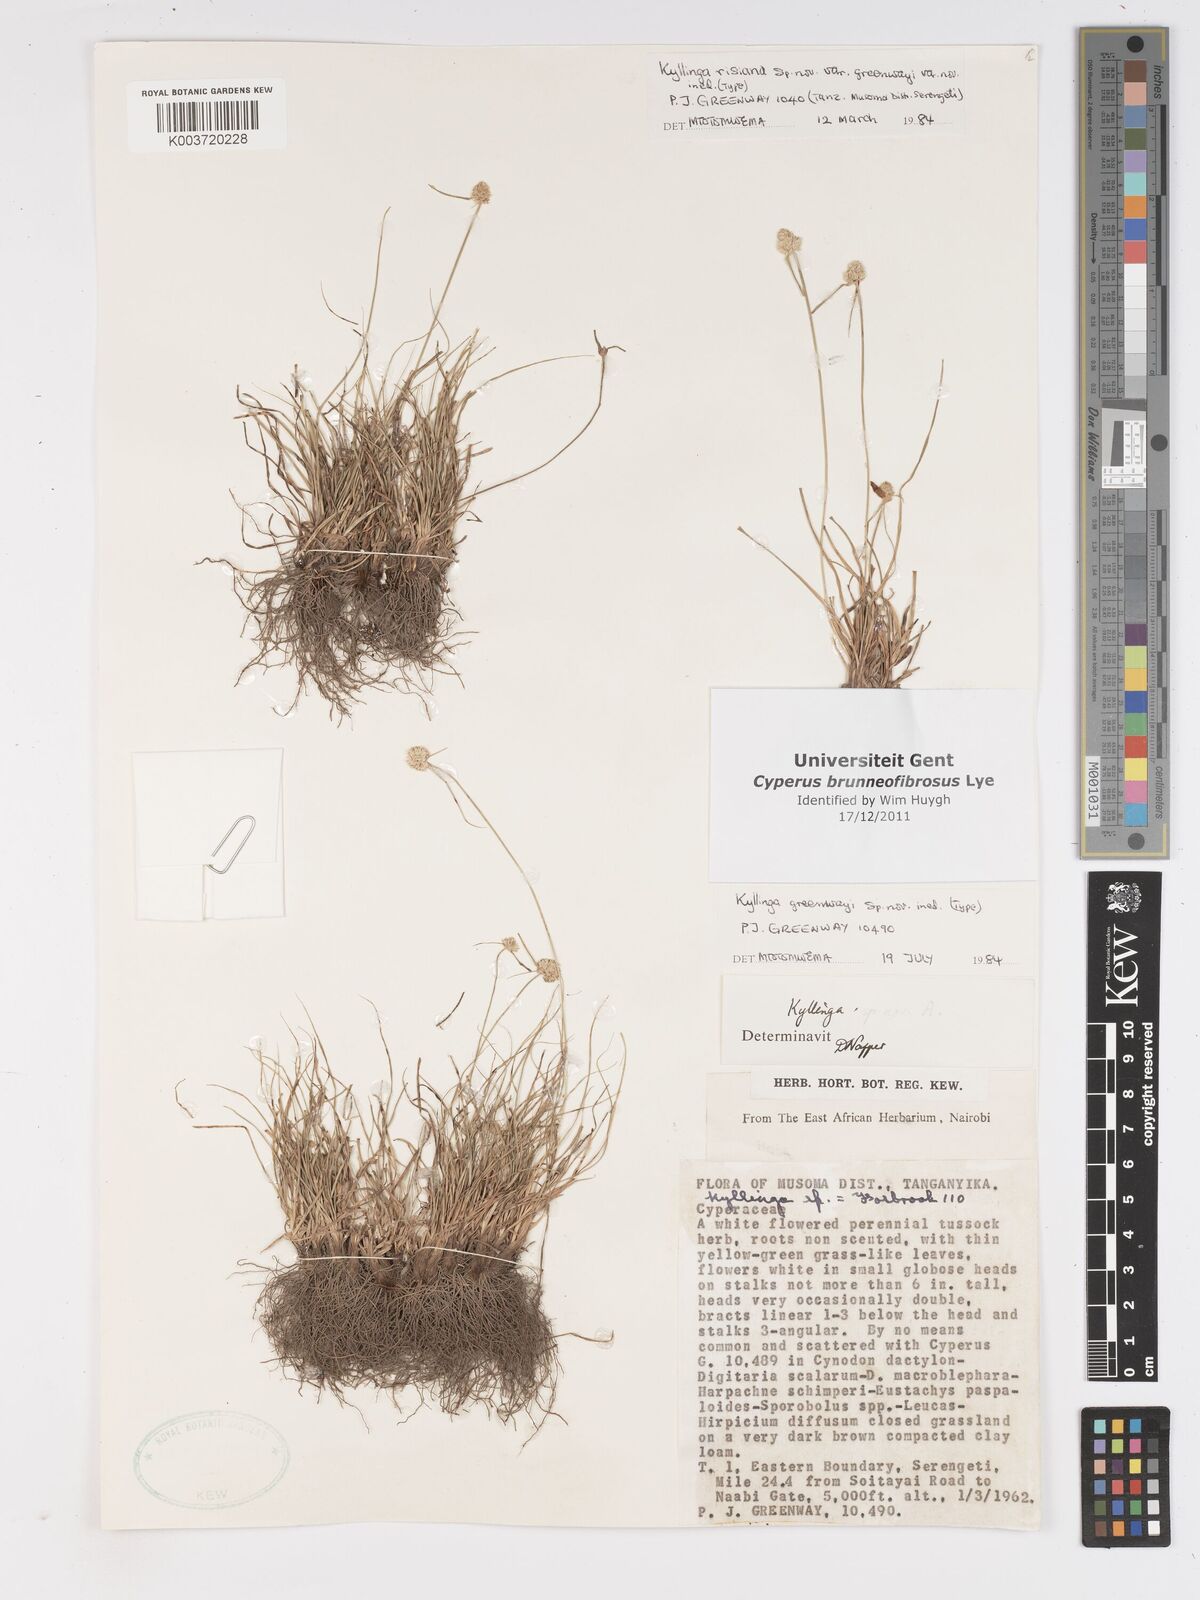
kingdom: Plantae
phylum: Tracheophyta
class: Liliopsida
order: Poales
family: Cyperaceae
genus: Cyperus
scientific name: Cyperus brunneofibrosus
